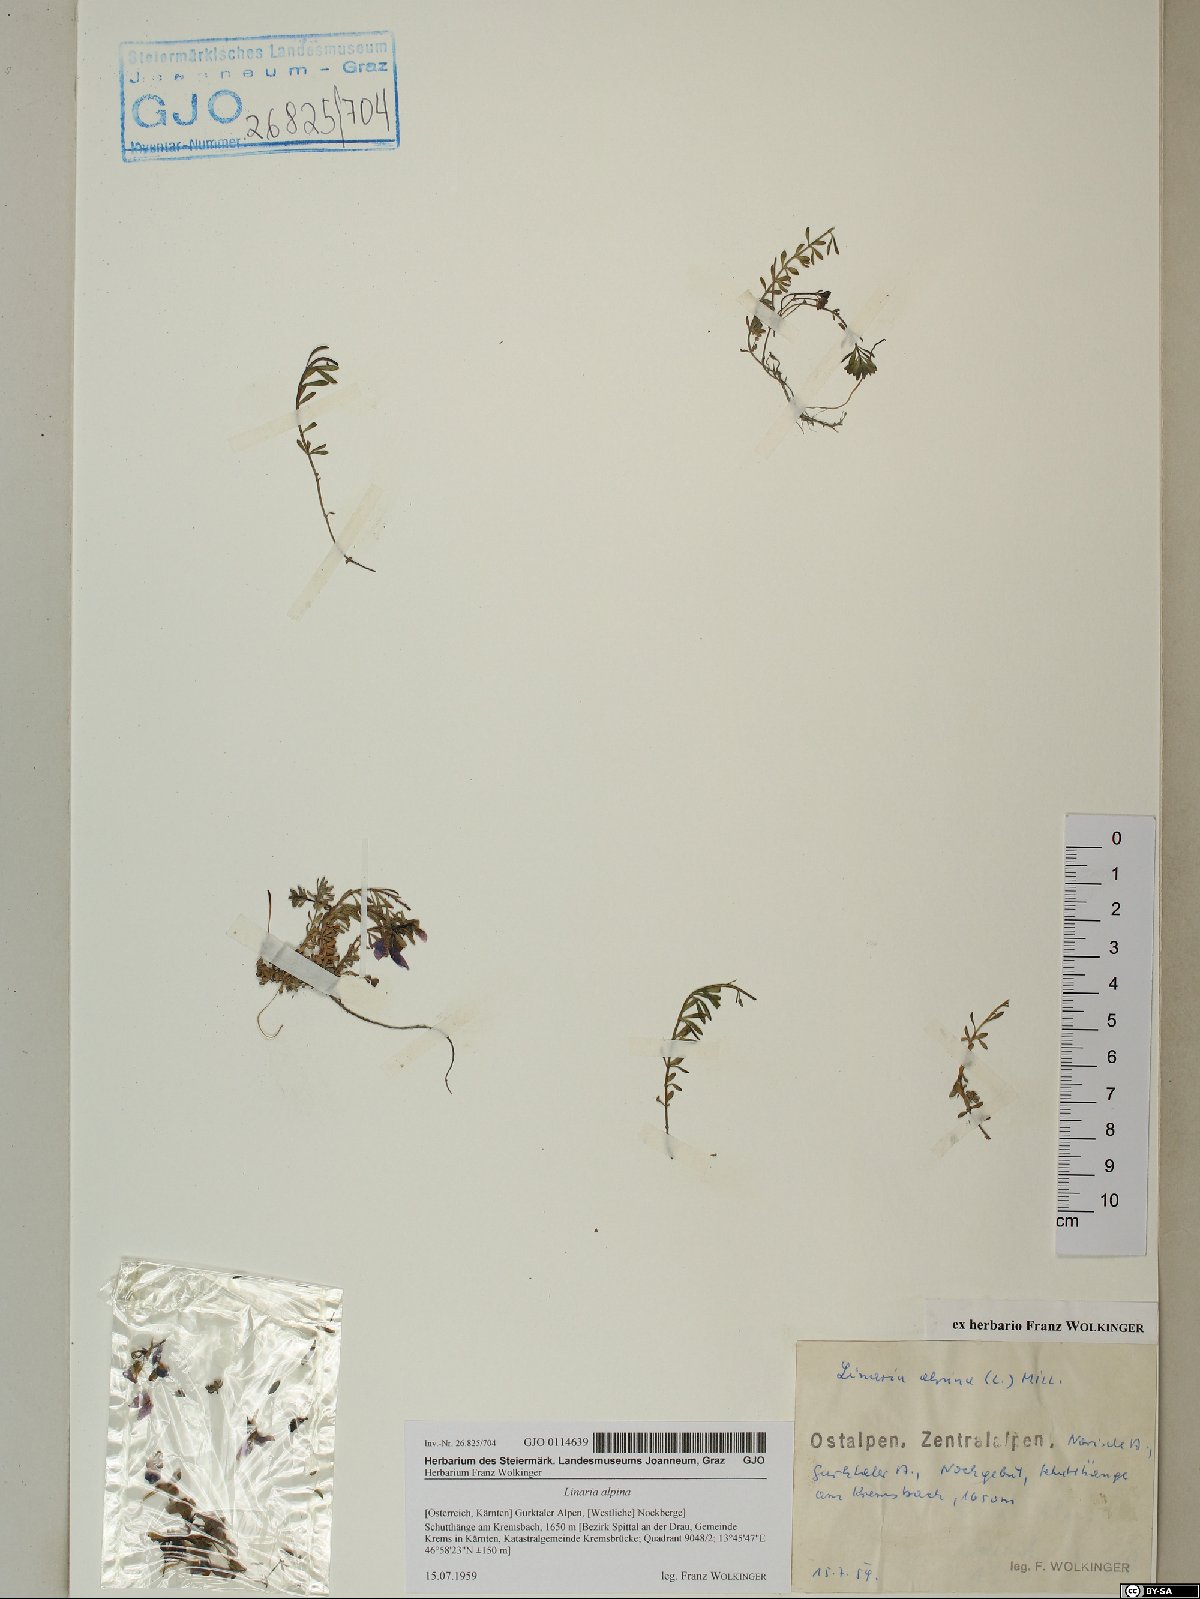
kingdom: Plantae
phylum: Tracheophyta
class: Magnoliopsida
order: Lamiales
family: Plantaginaceae
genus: Linaria
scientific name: Linaria alpina
